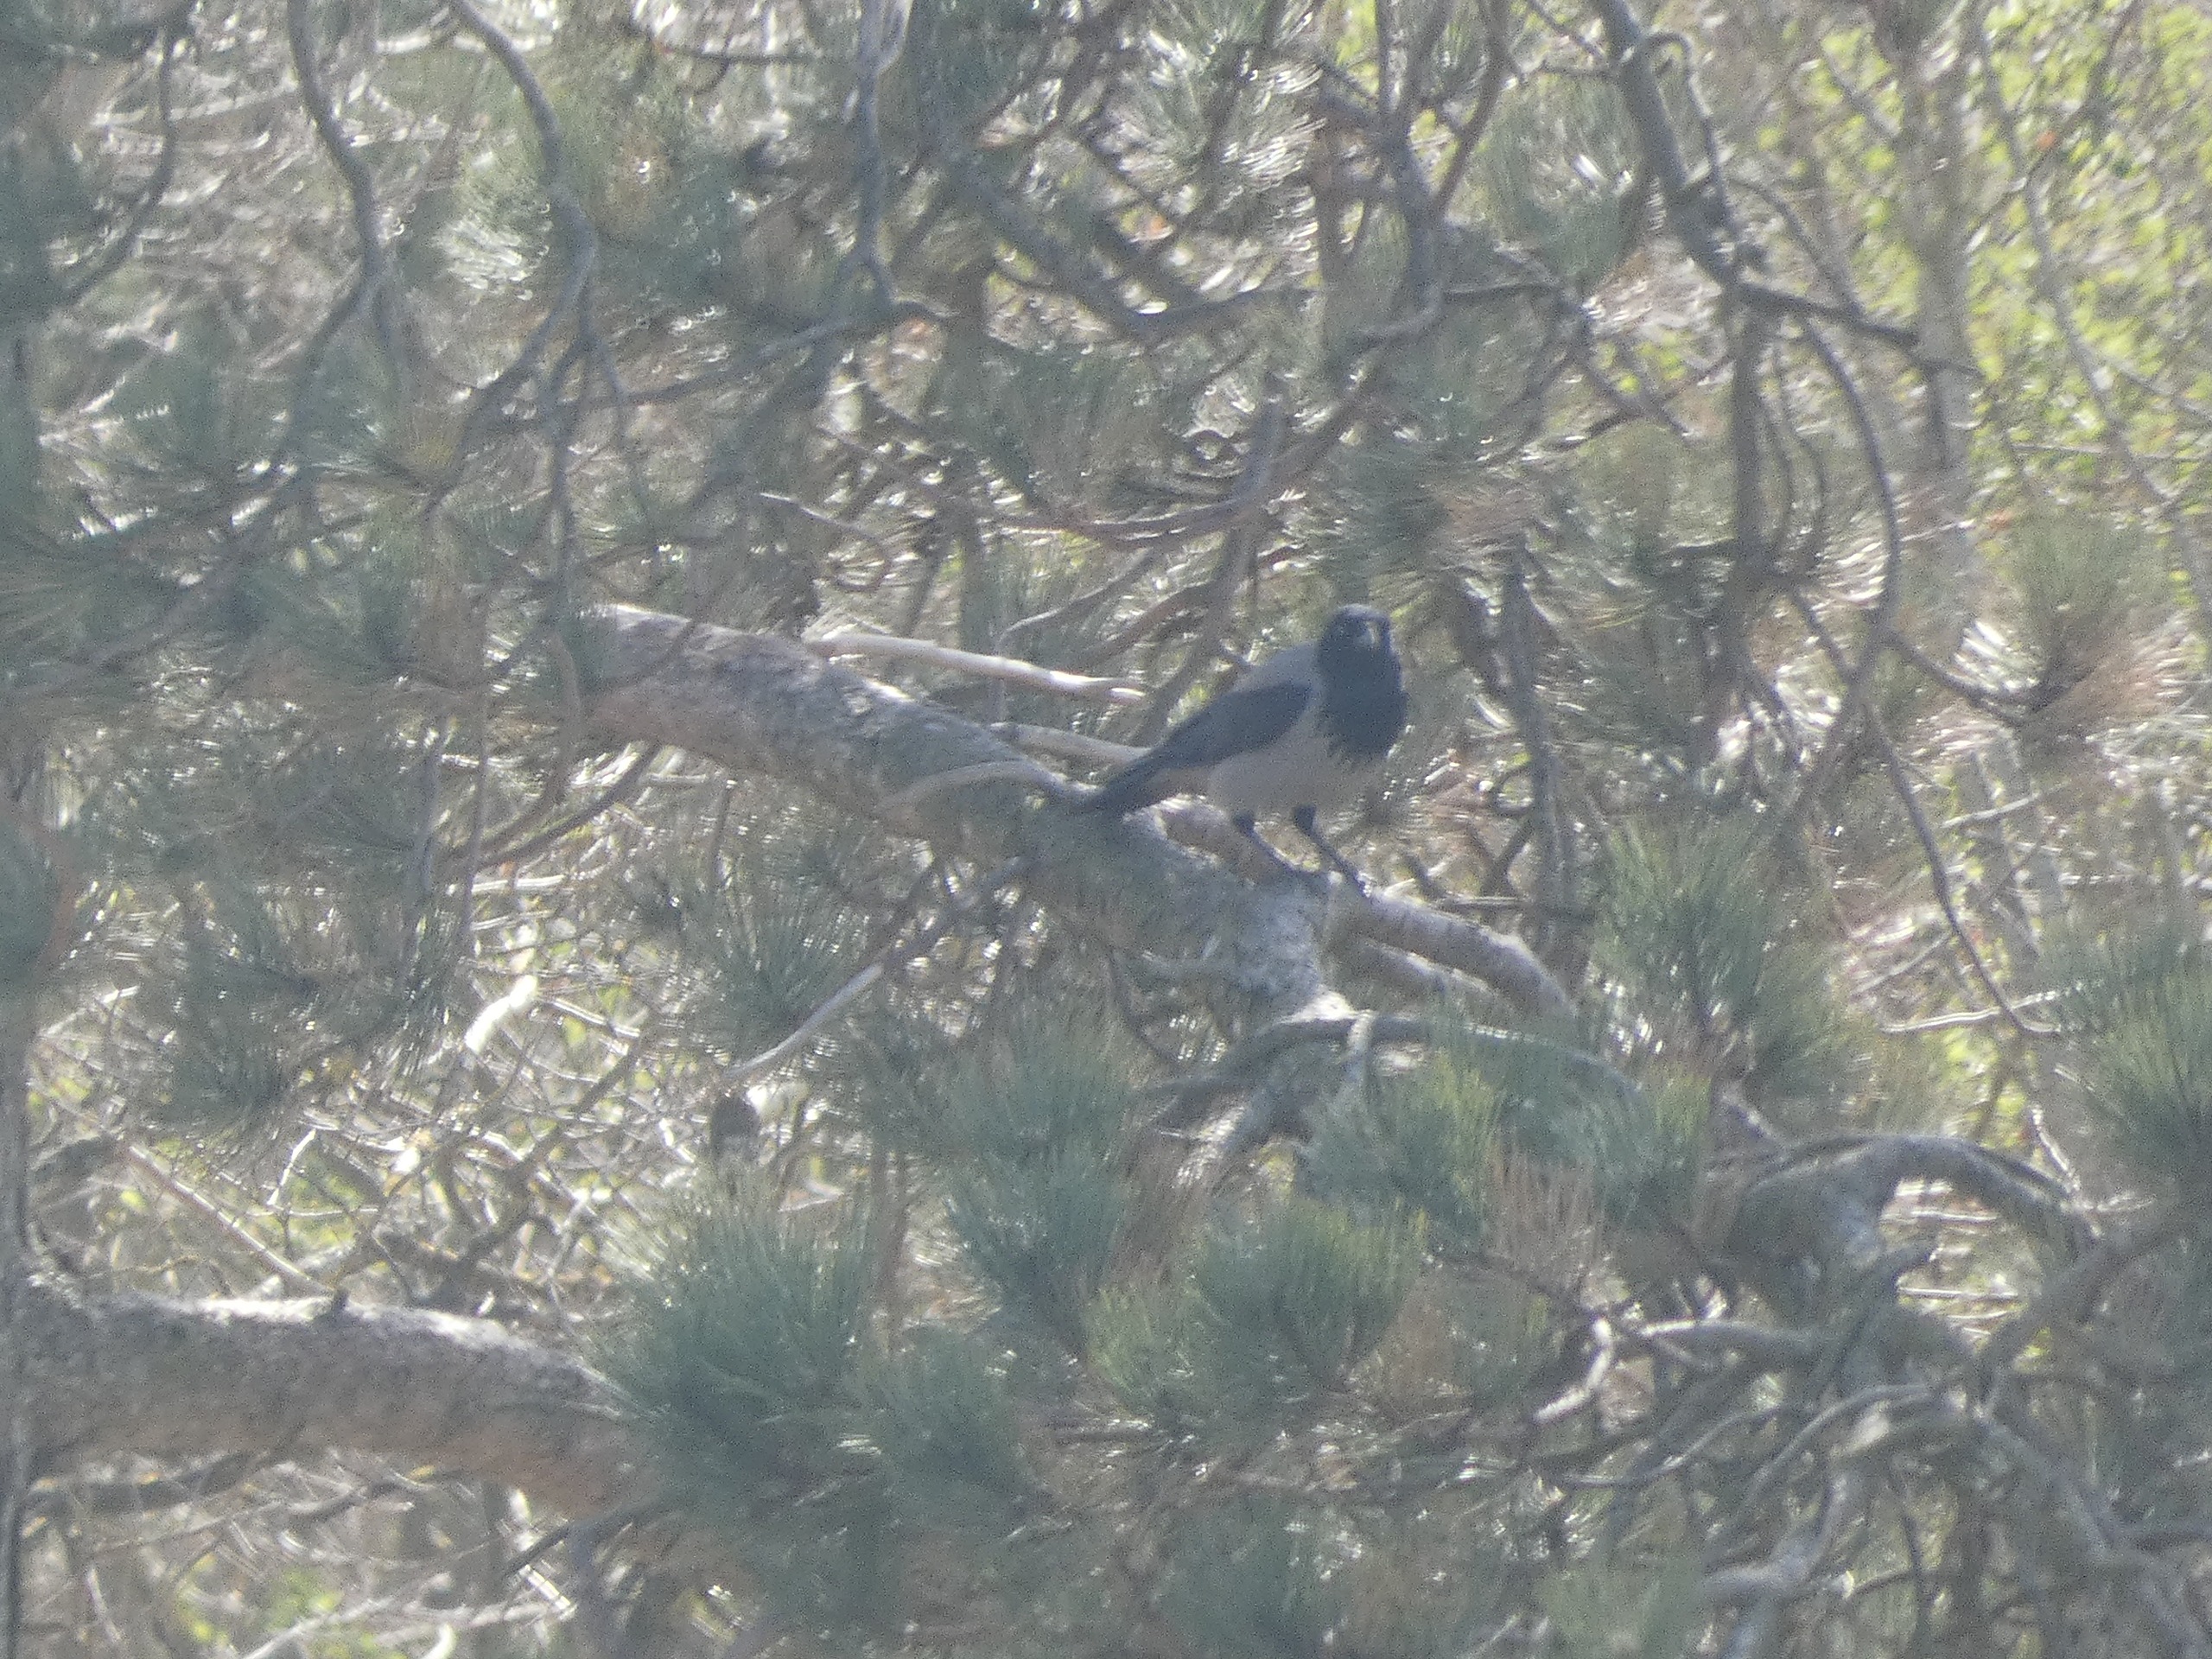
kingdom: Animalia
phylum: Chordata
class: Aves
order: Passeriformes
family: Corvidae
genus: Corvus
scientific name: Corvus cornix
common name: Gråkrage
